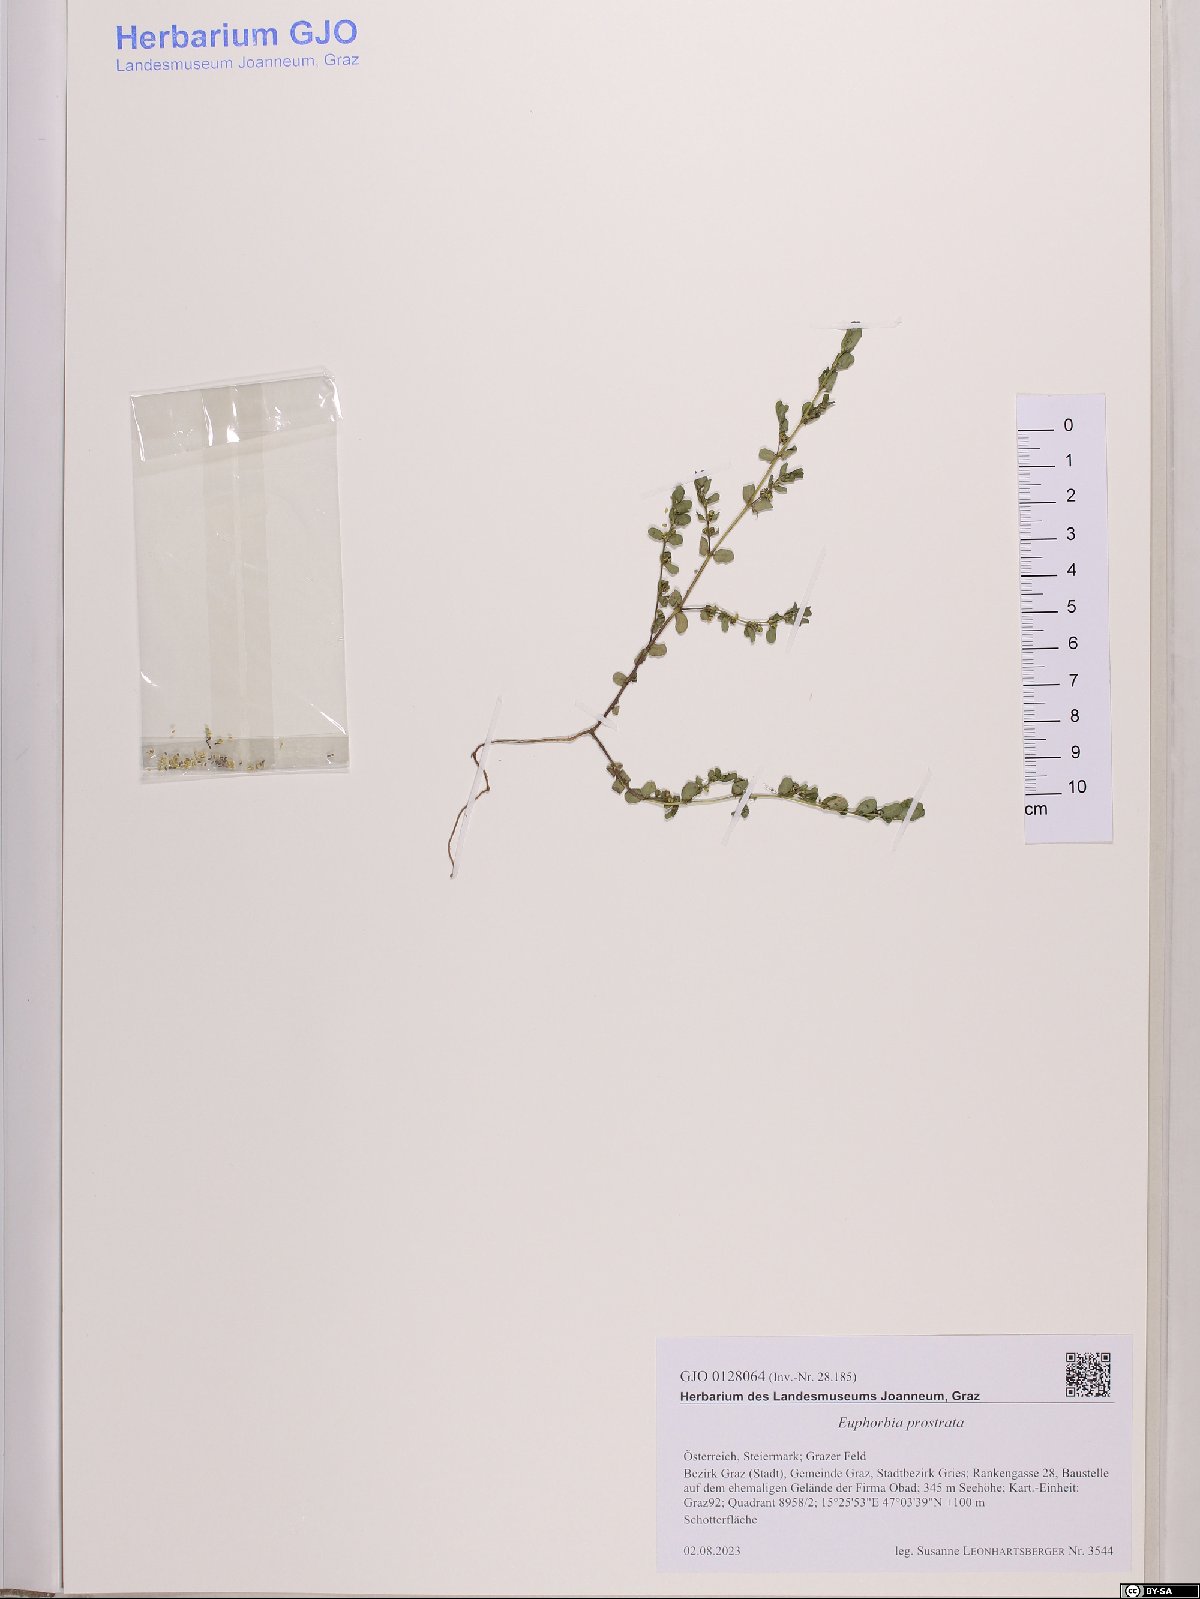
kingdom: Plantae
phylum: Tracheophyta
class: Magnoliopsida
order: Malpighiales
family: Euphorbiaceae
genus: Euphorbia
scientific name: Euphorbia prostrata
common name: Prostrate sandmat
